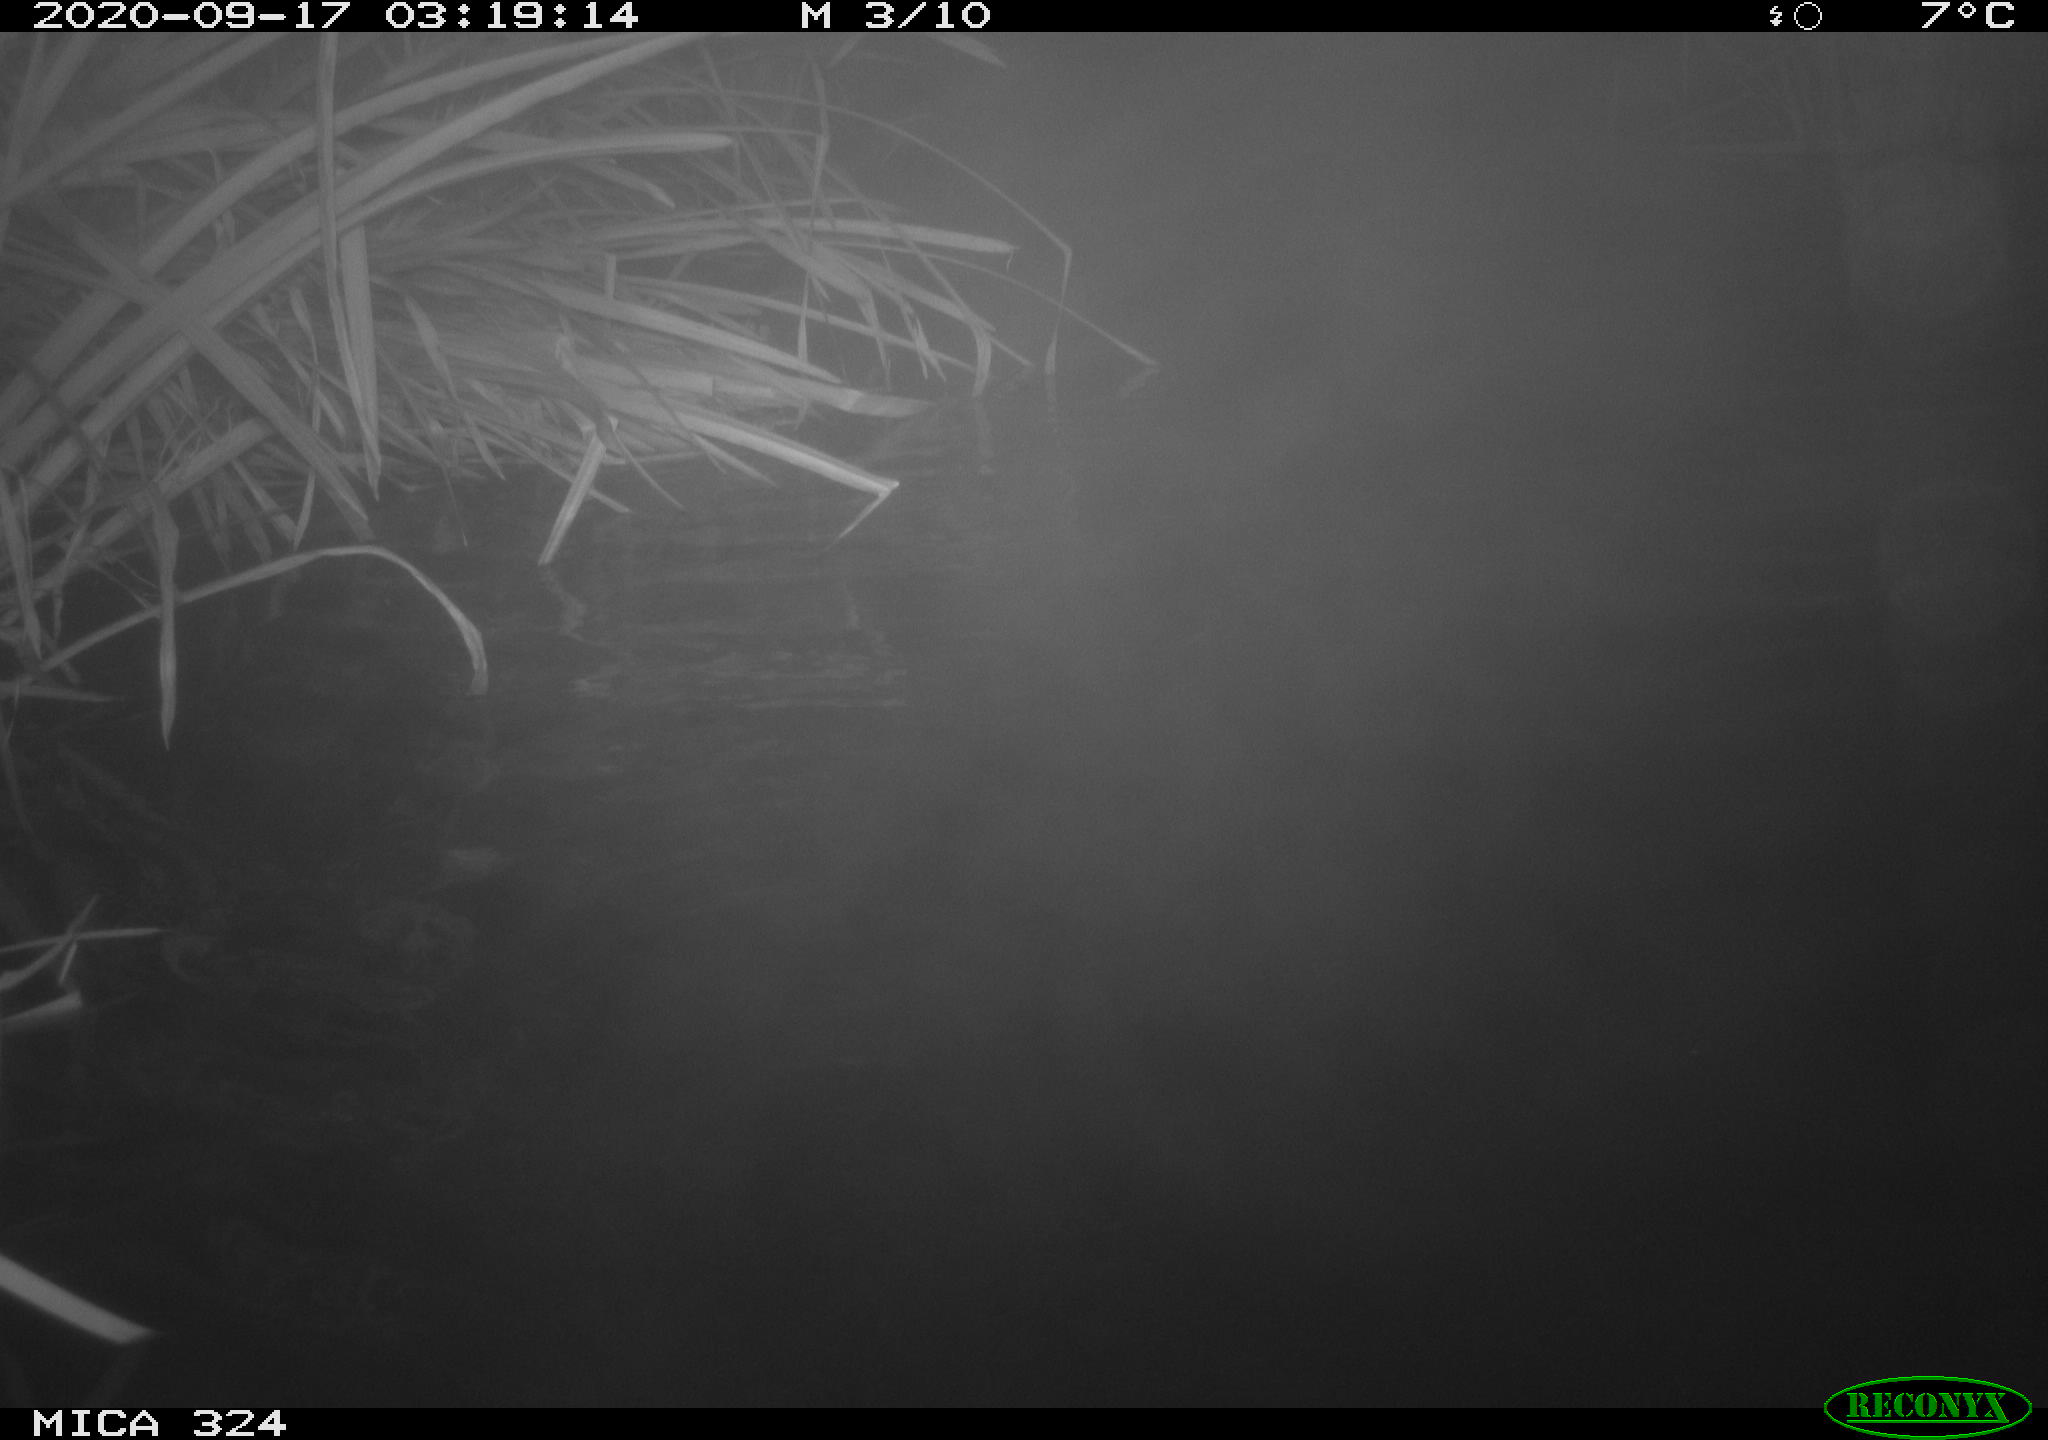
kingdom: Animalia
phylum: Chordata
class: Mammalia
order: Rodentia
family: Cricetidae
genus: Ondatra
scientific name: Ondatra zibethicus
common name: Muskrat
